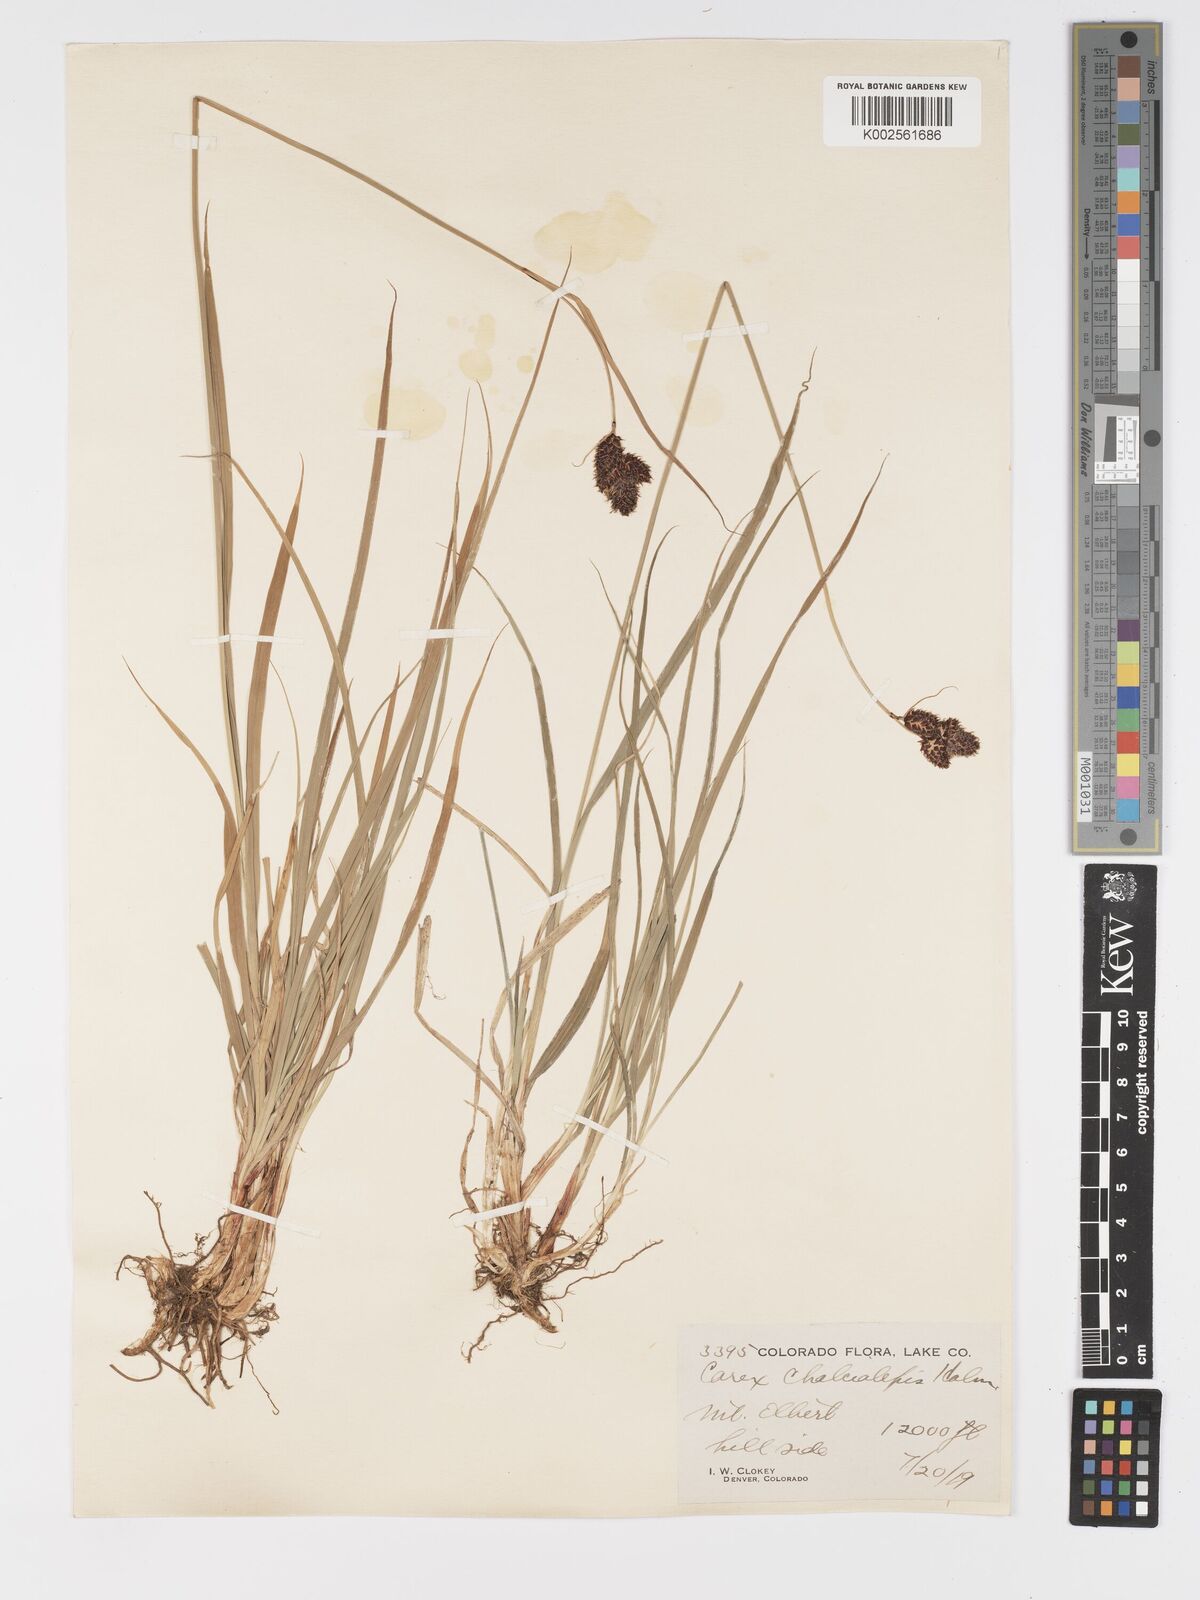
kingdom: Plantae
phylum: Tracheophyta
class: Liliopsida
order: Poales
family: Cyperaceae
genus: Carex
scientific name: Carex chalciolepis
